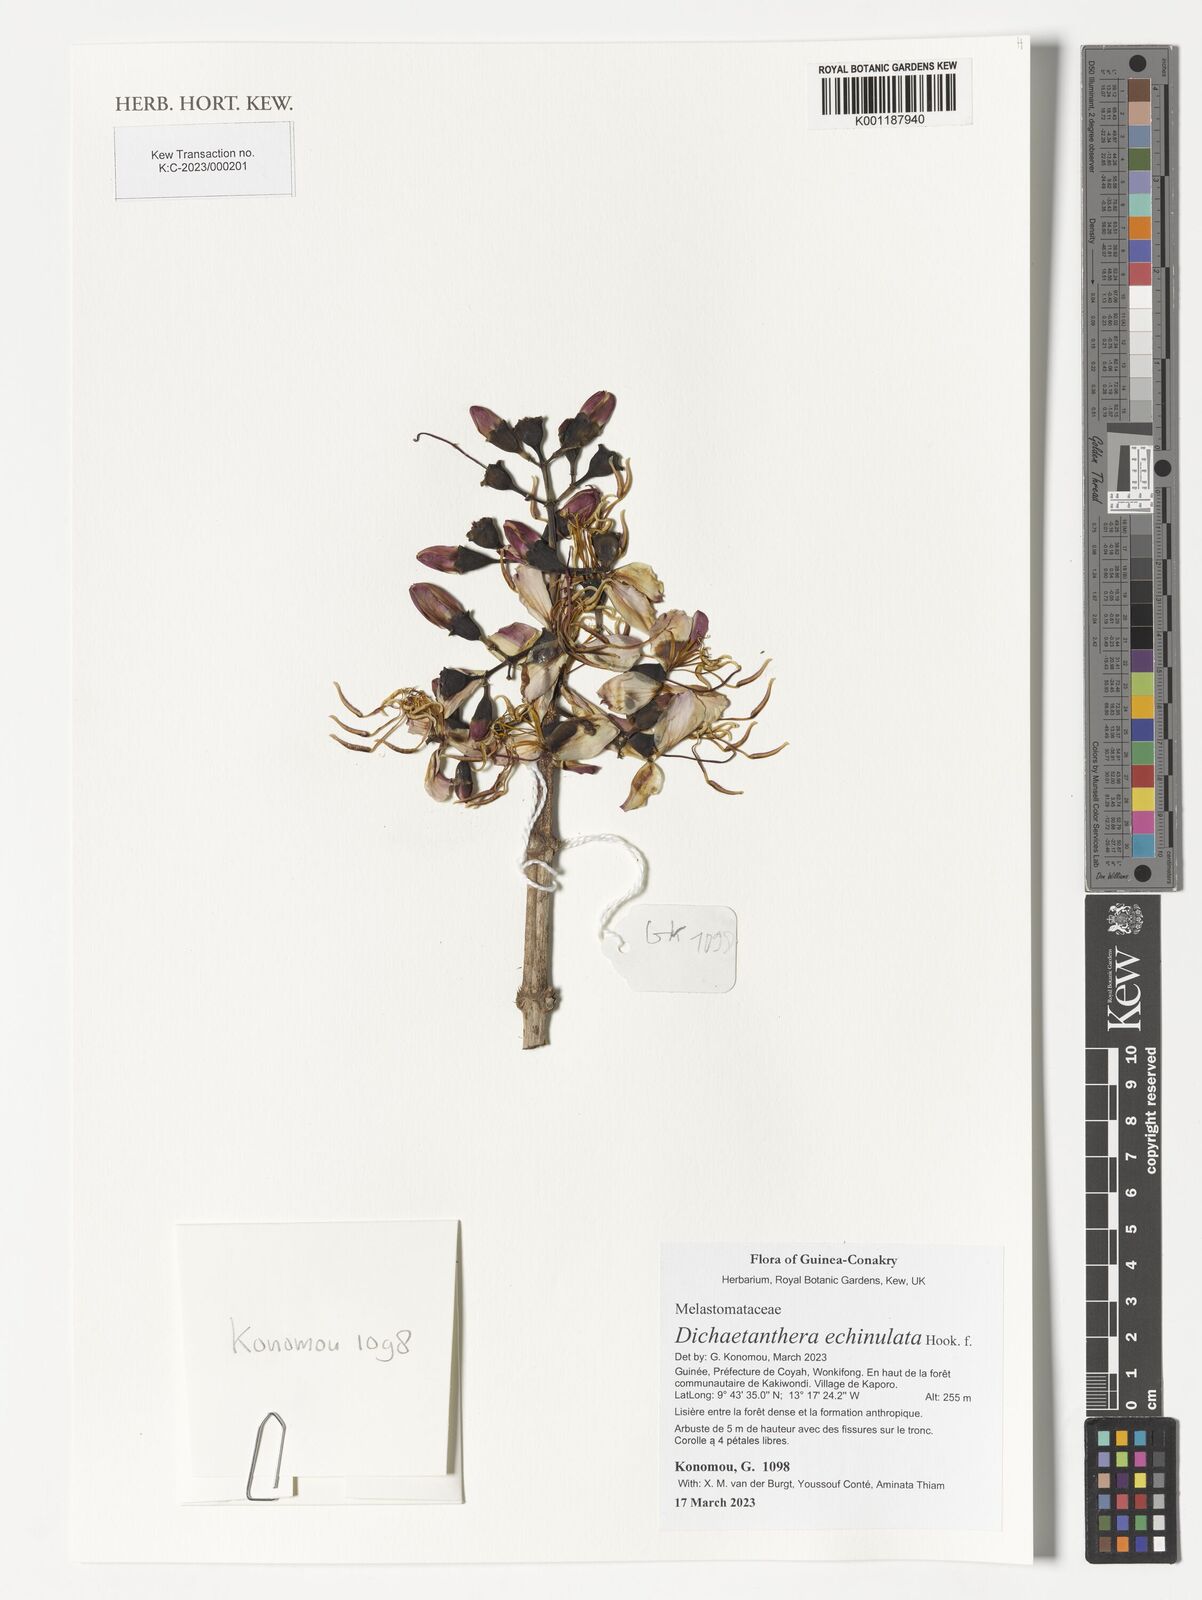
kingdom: Plantae
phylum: Tracheophyta
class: Magnoliopsida
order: Myrtales
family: Melastomataceae
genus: Dichaetanthera
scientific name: Dichaetanthera echinulata
